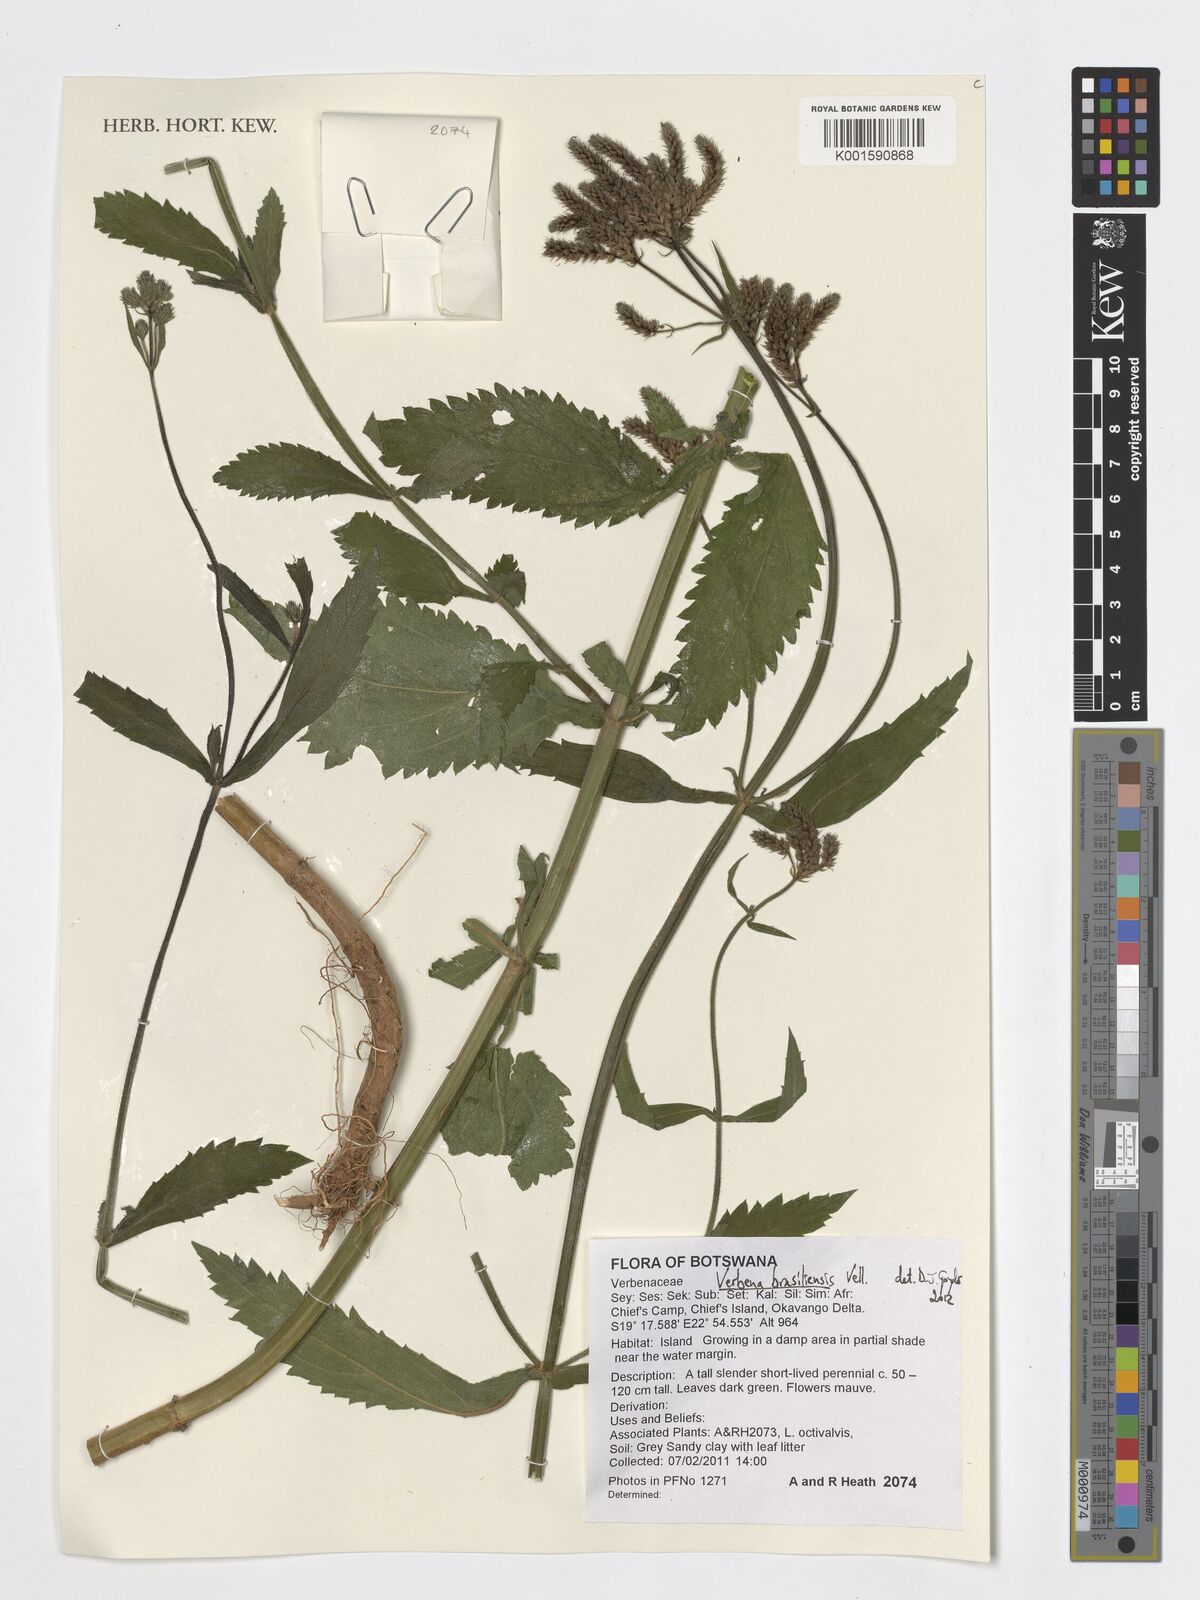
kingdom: Plantae
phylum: Tracheophyta
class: Magnoliopsida
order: Lamiales
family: Verbenaceae
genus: Verbena
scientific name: Verbena brasiliensis
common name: Brazilian vervain
